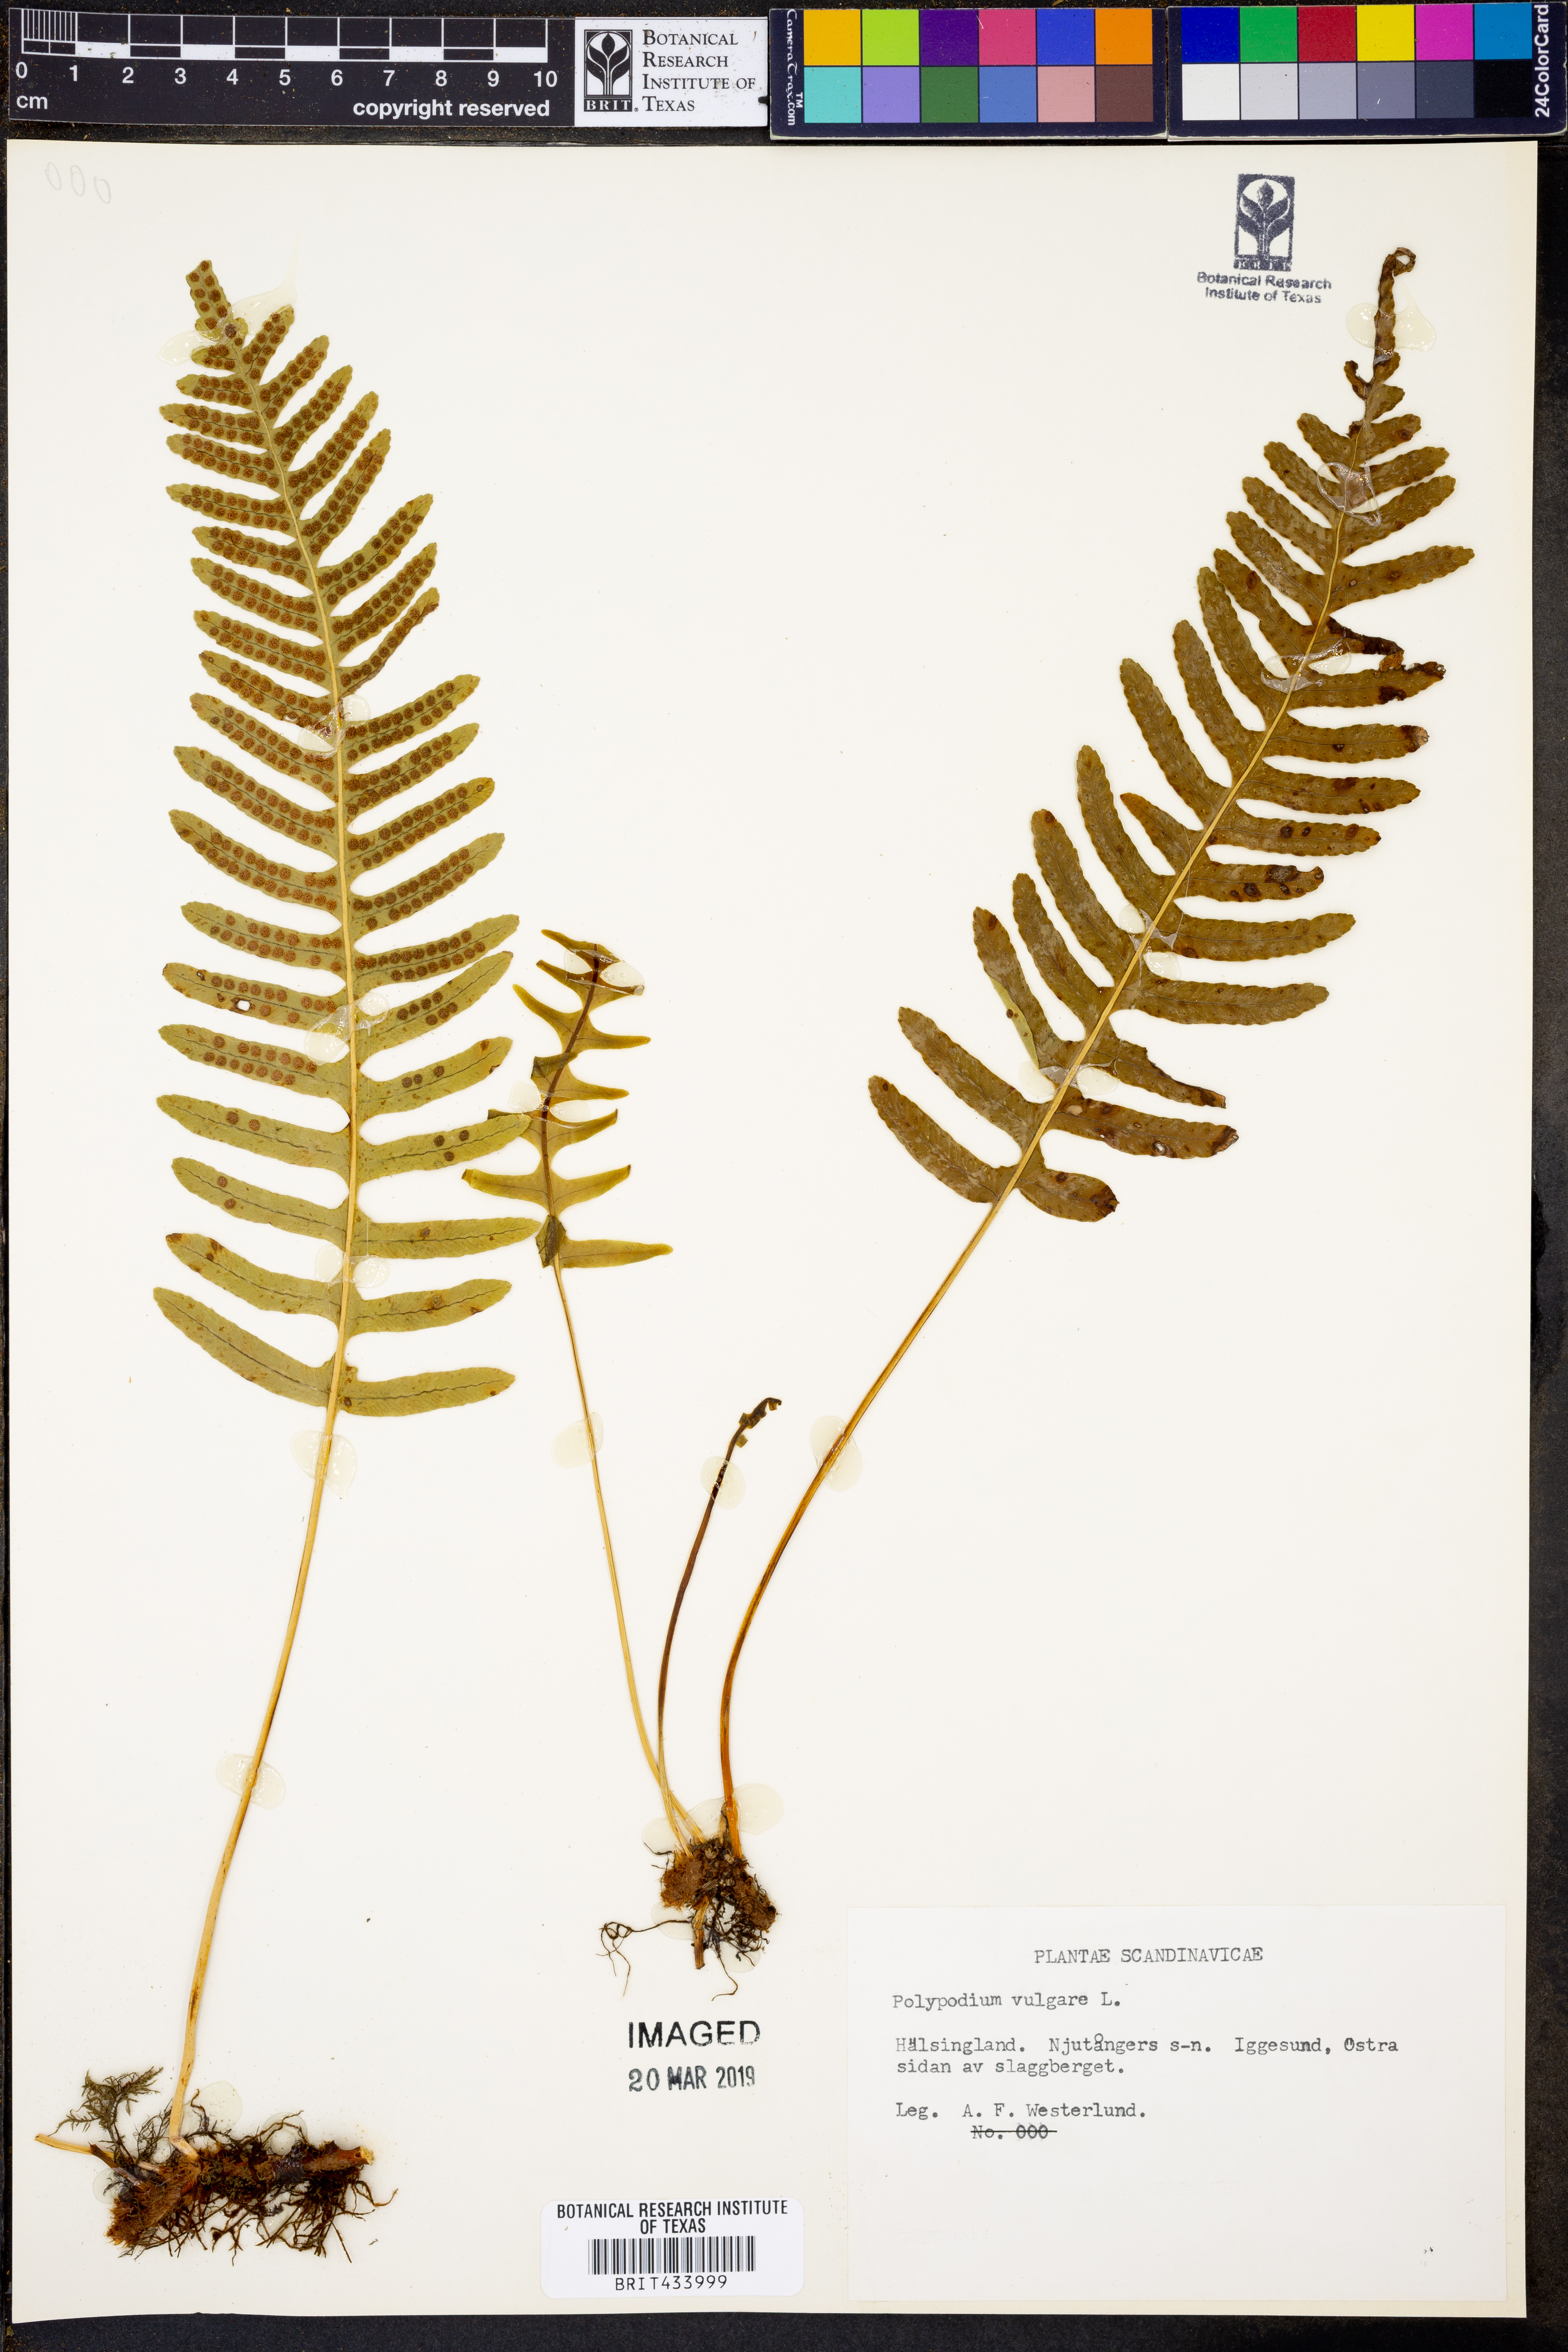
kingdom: Plantae
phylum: Tracheophyta
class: Polypodiopsida
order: Polypodiales
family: Polypodiaceae
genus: Polypodium
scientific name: Polypodium vulgare
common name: Common polypody
